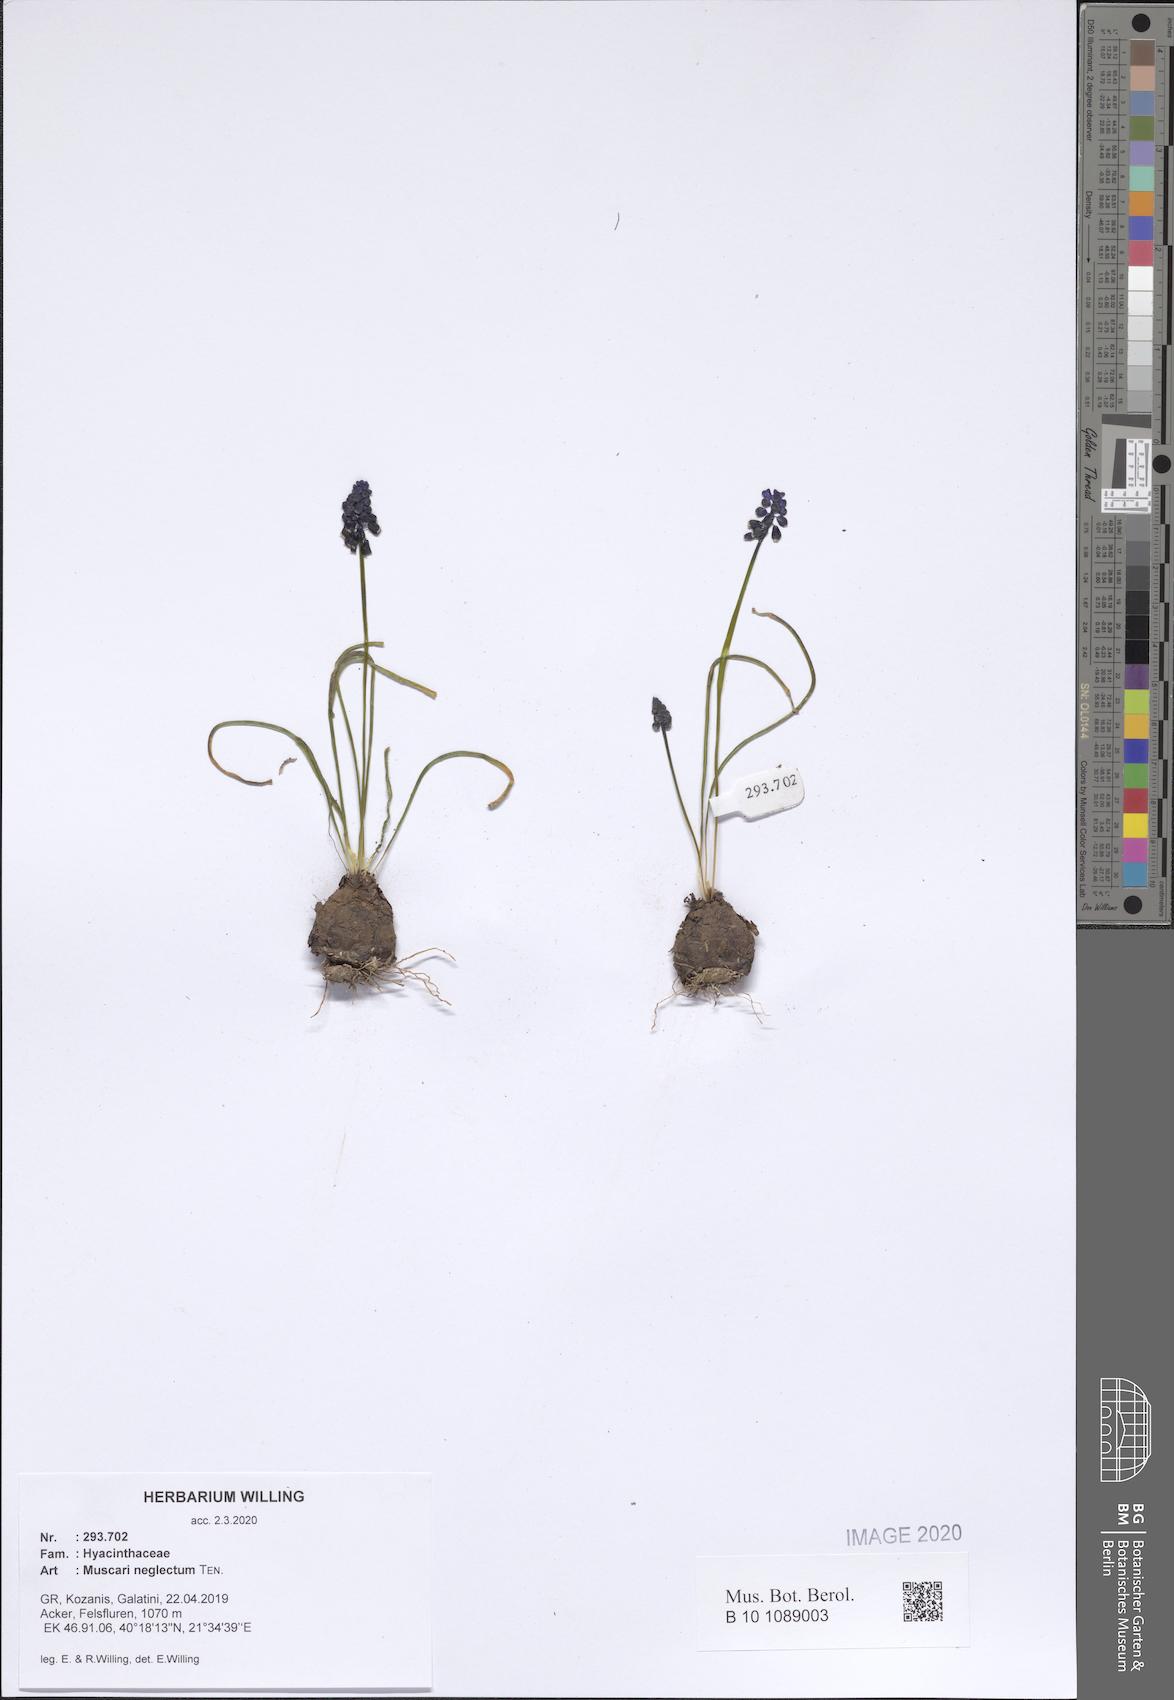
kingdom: Plantae
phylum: Tracheophyta
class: Liliopsida
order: Asparagales
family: Asparagaceae
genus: Muscari
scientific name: Muscari neglectum
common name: Grape-hyacinth
